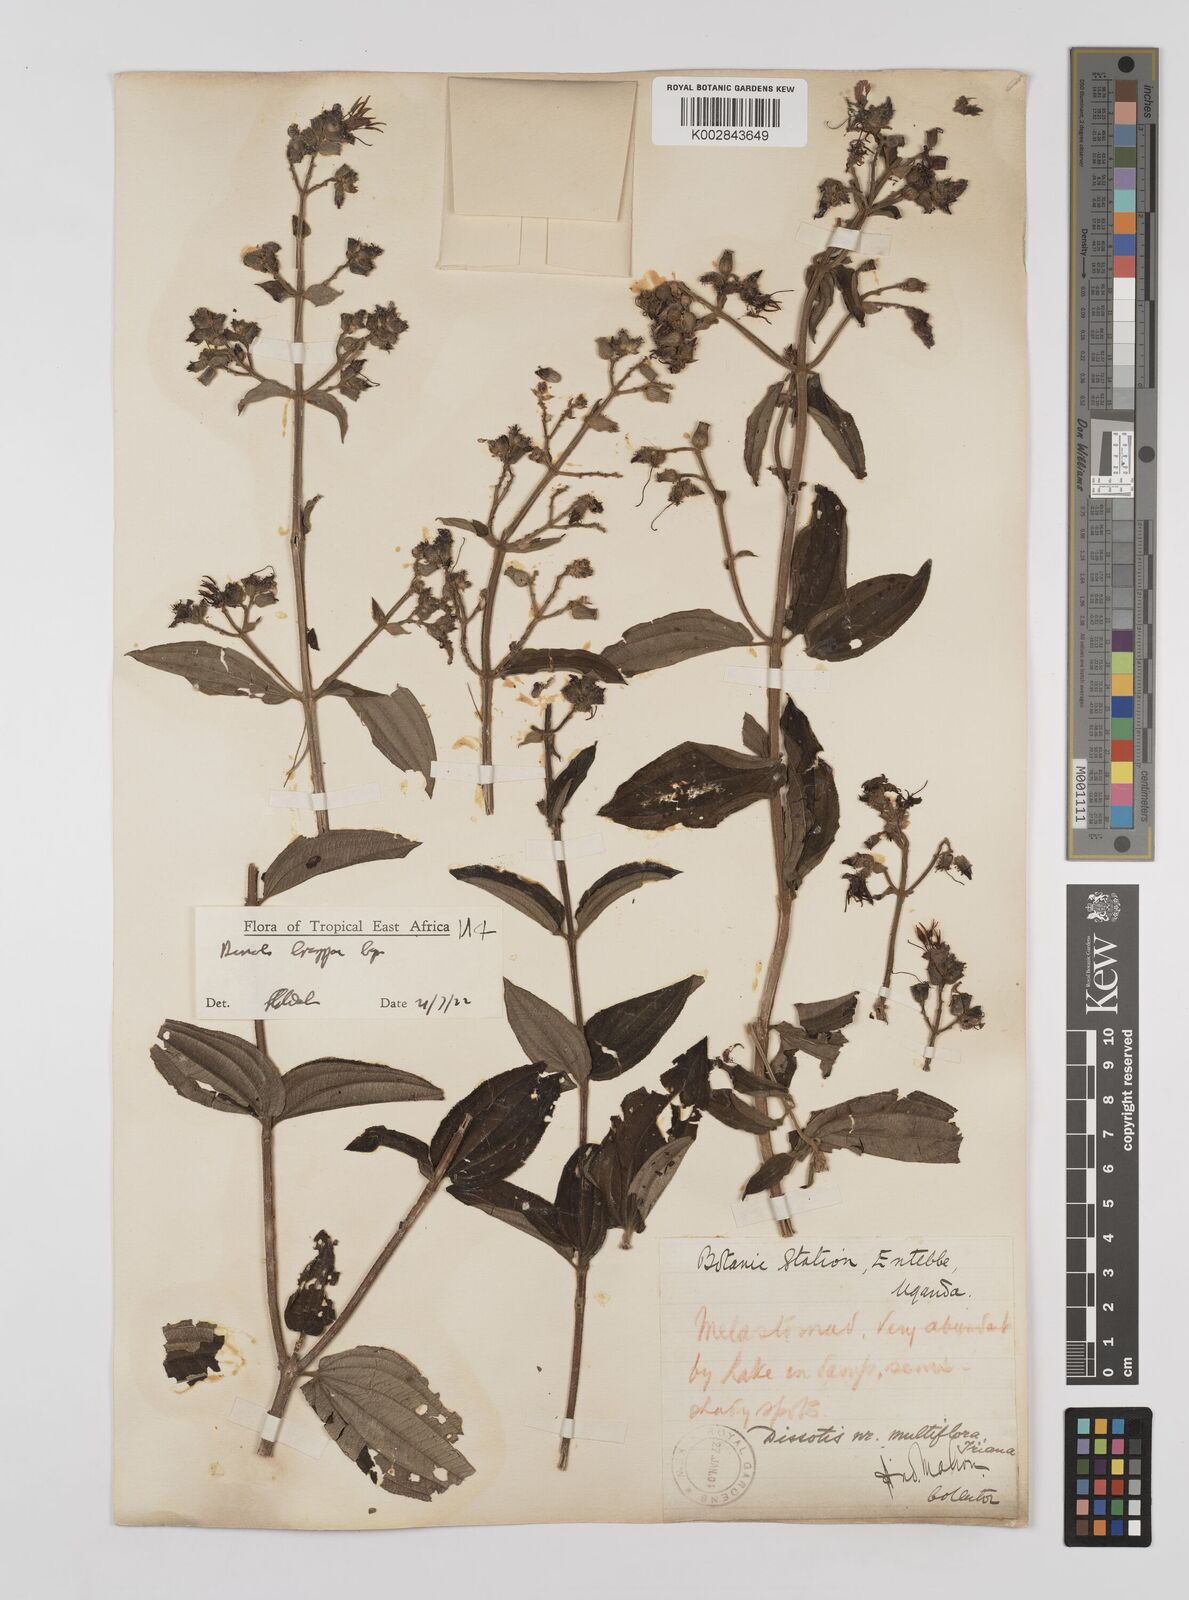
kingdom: Plantae
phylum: Tracheophyta
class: Magnoliopsida
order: Myrtales
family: Melastomataceae
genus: Dupineta
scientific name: Dupineta brazzae
